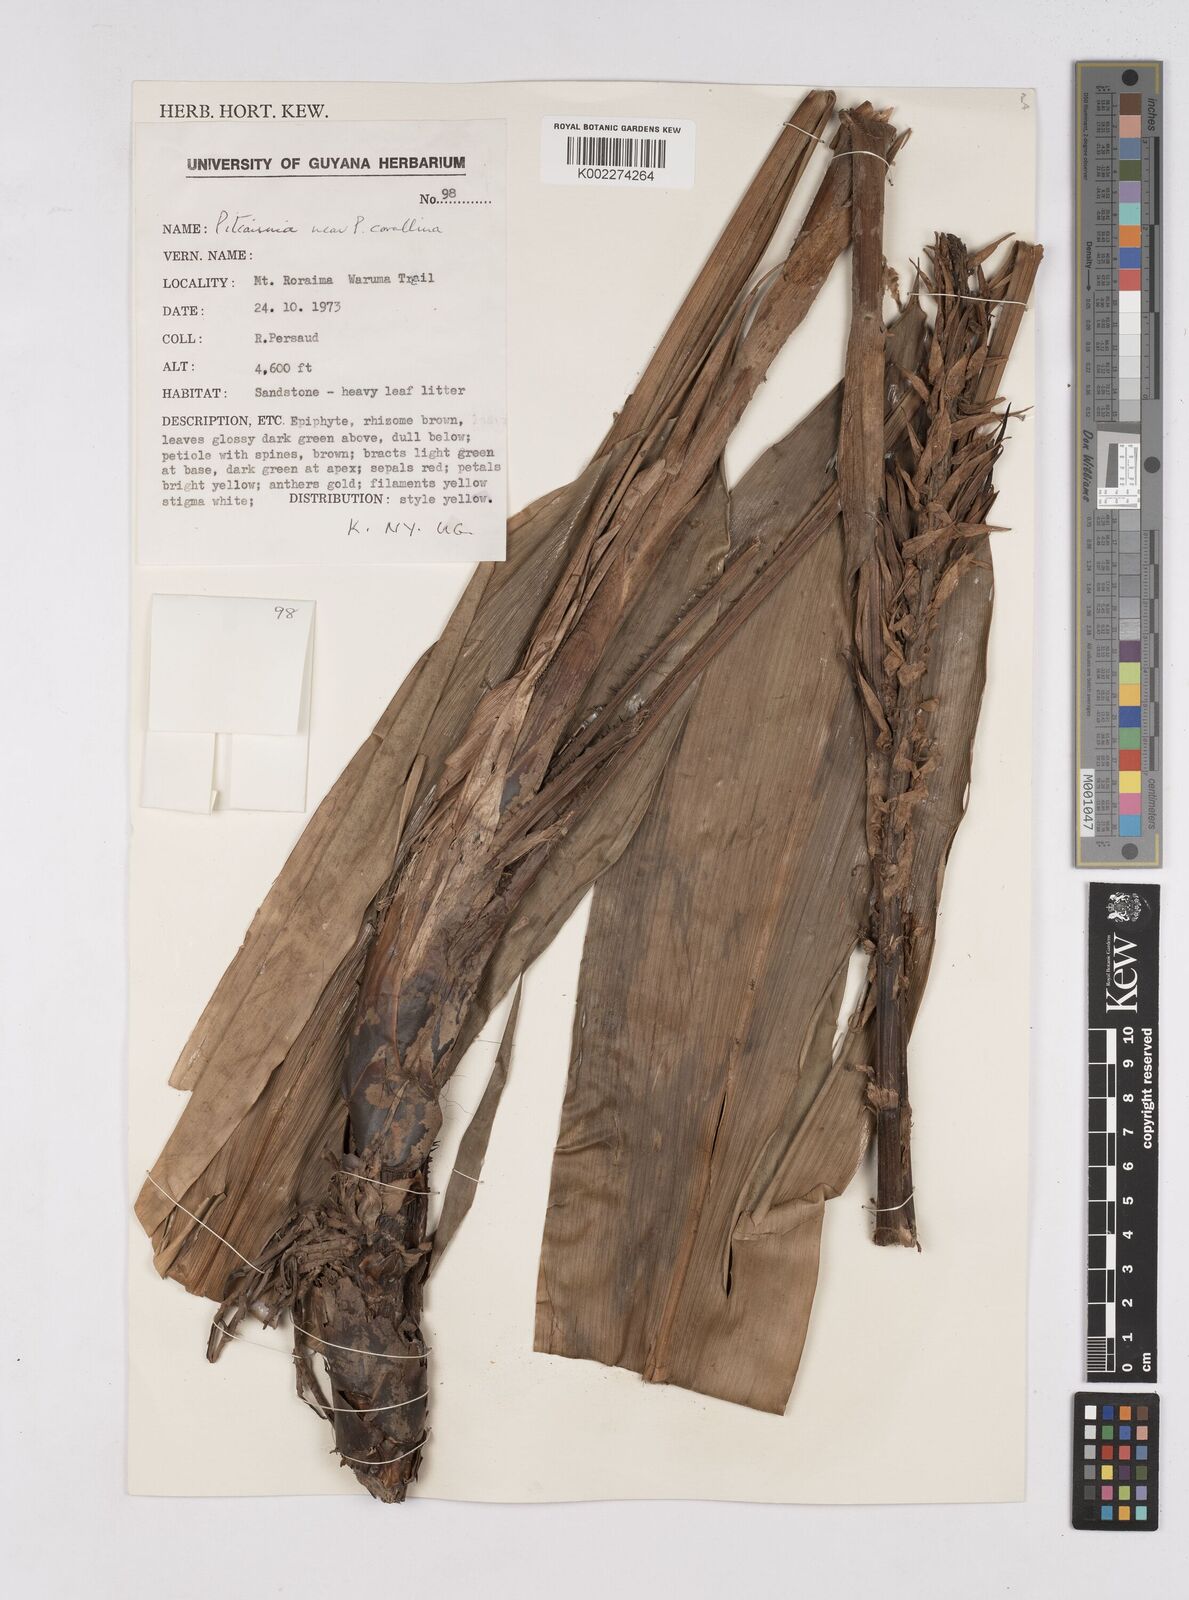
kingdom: Plantae
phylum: Tracheophyta
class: Liliopsida
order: Poales
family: Bromeliaceae
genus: Pitcairnia
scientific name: Pitcairnia corallina
